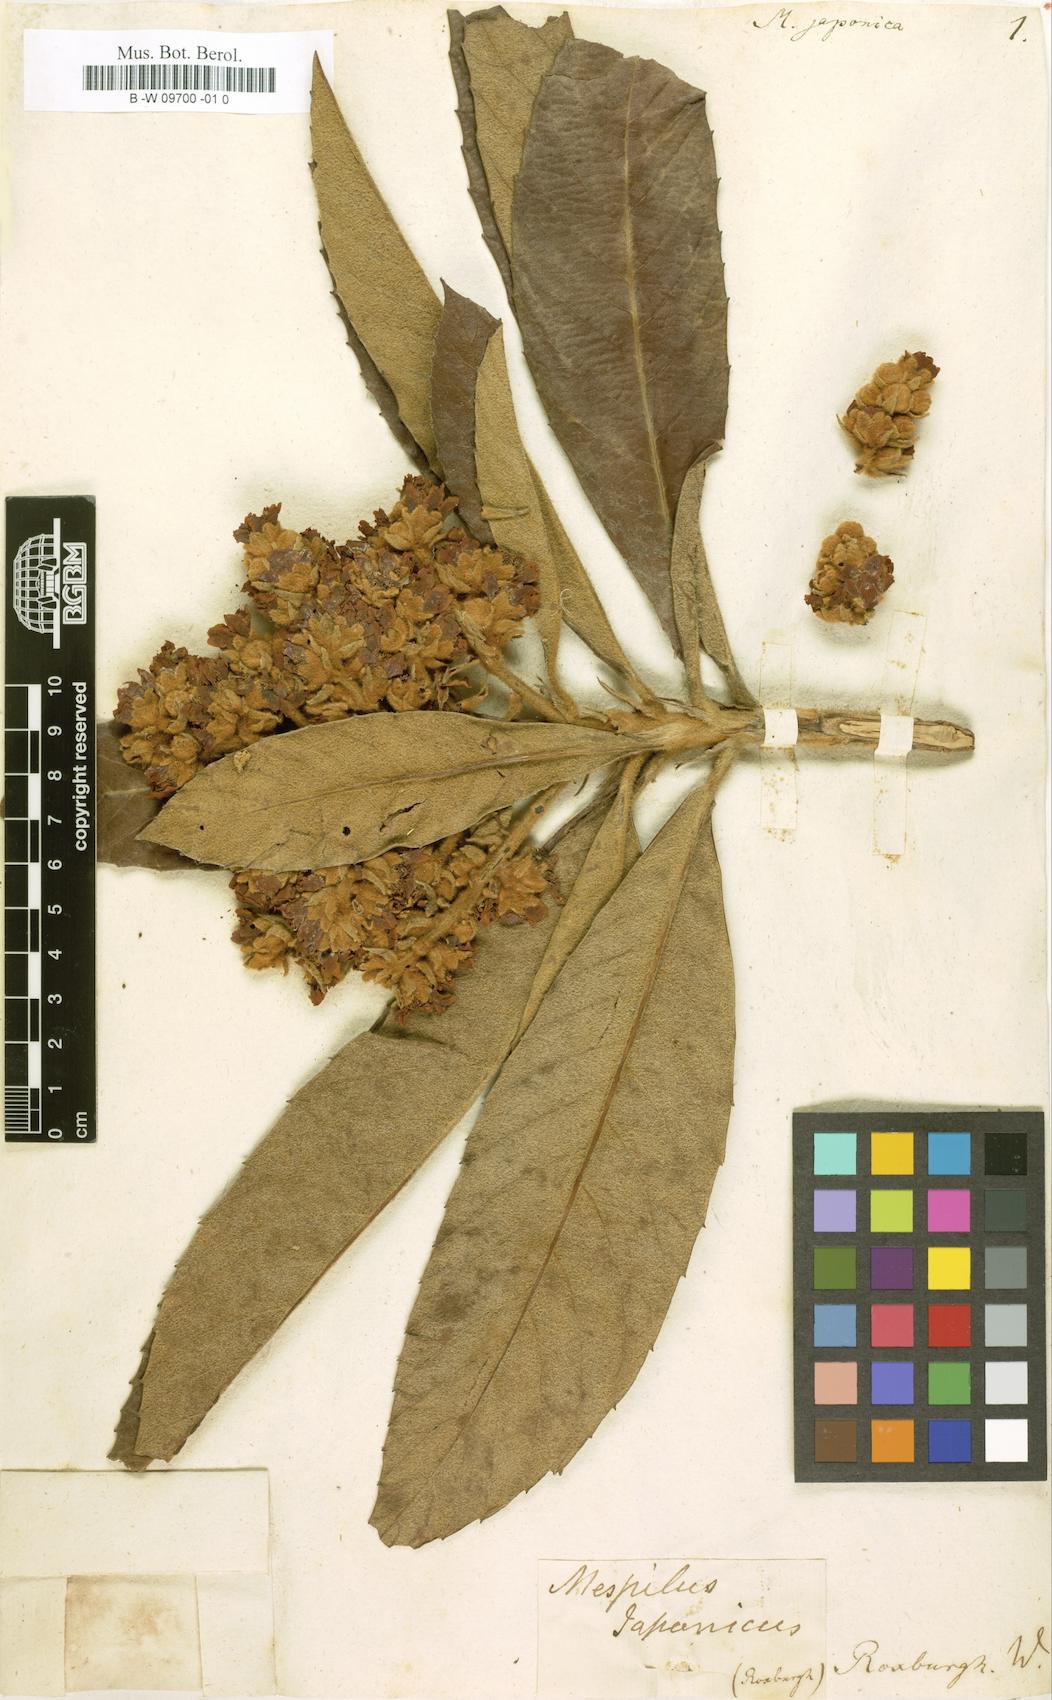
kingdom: Plantae
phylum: Tracheophyta
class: Magnoliopsida
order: Rosales
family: Rosaceae
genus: Rhaphiolepis
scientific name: Rhaphiolepis bibas
